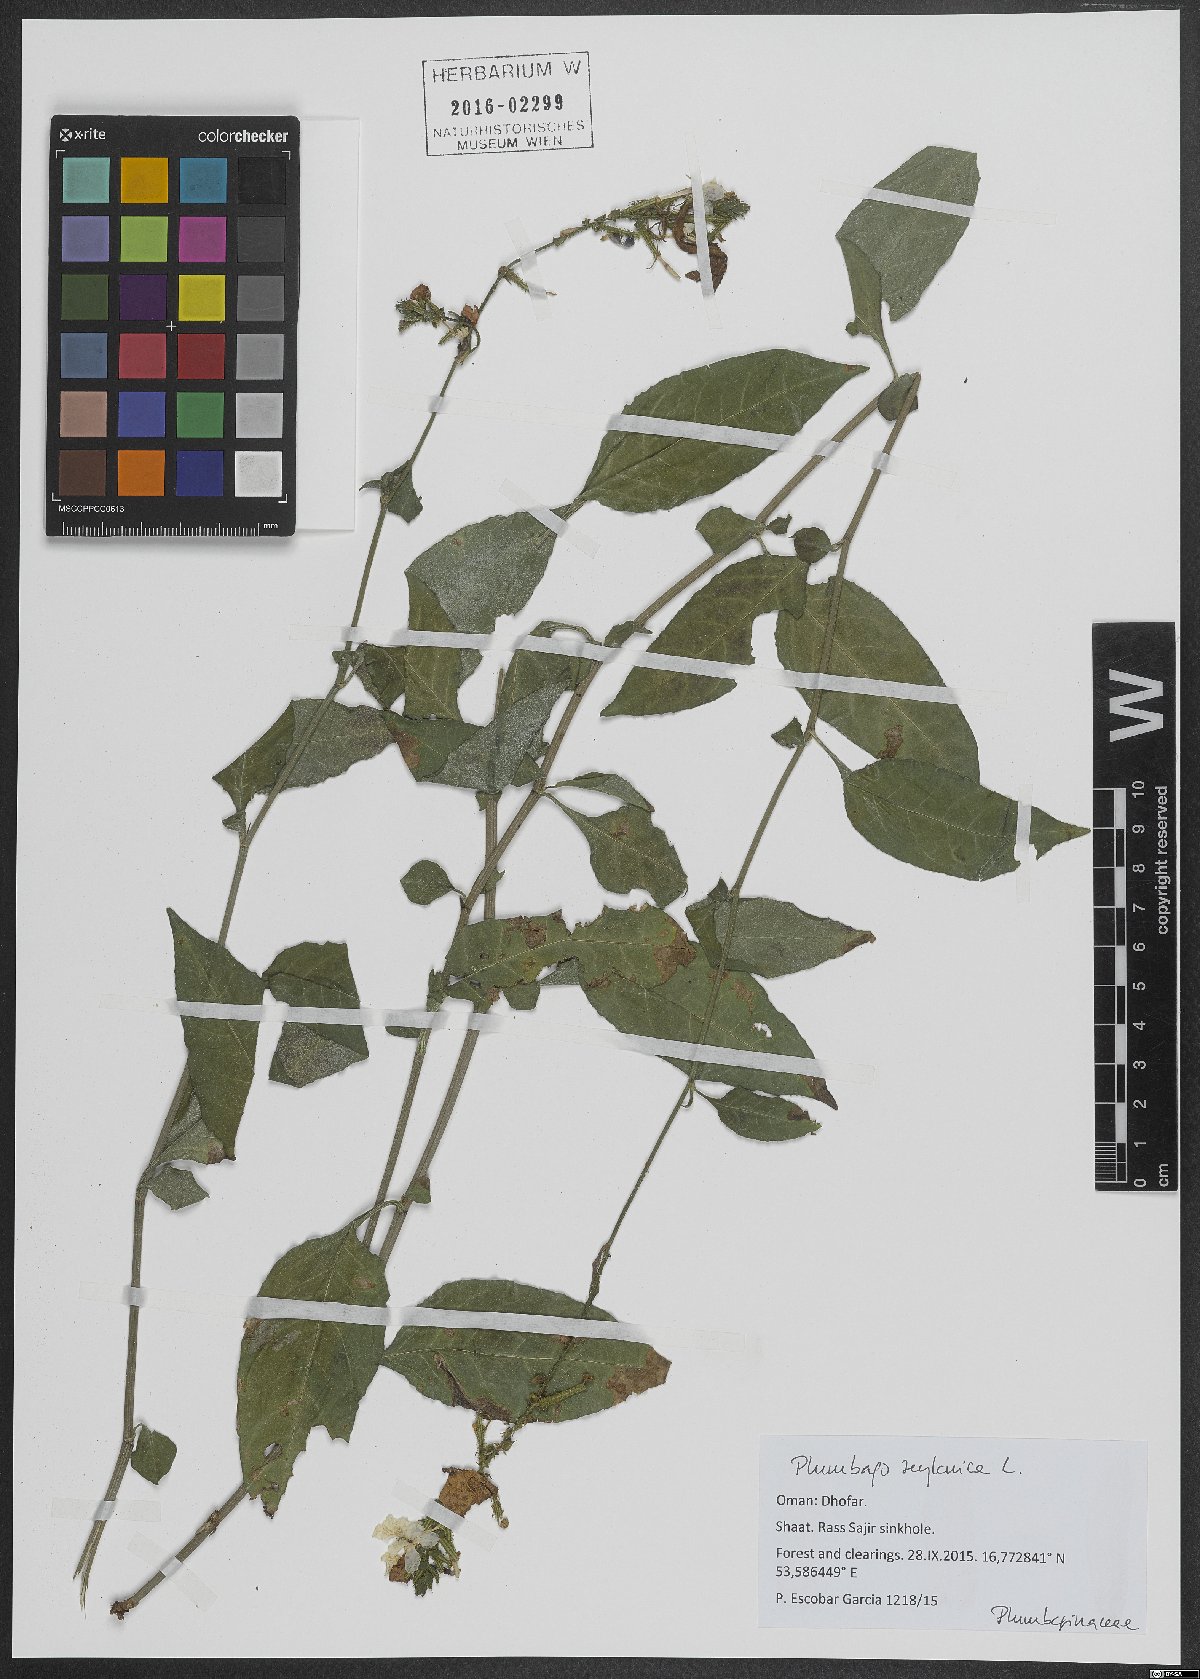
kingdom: Plantae
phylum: Tracheophyta
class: Magnoliopsida
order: Caryophyllales
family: Plumbaginaceae
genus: Plumbago
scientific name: Plumbago zeylanica
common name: Doctorbush
